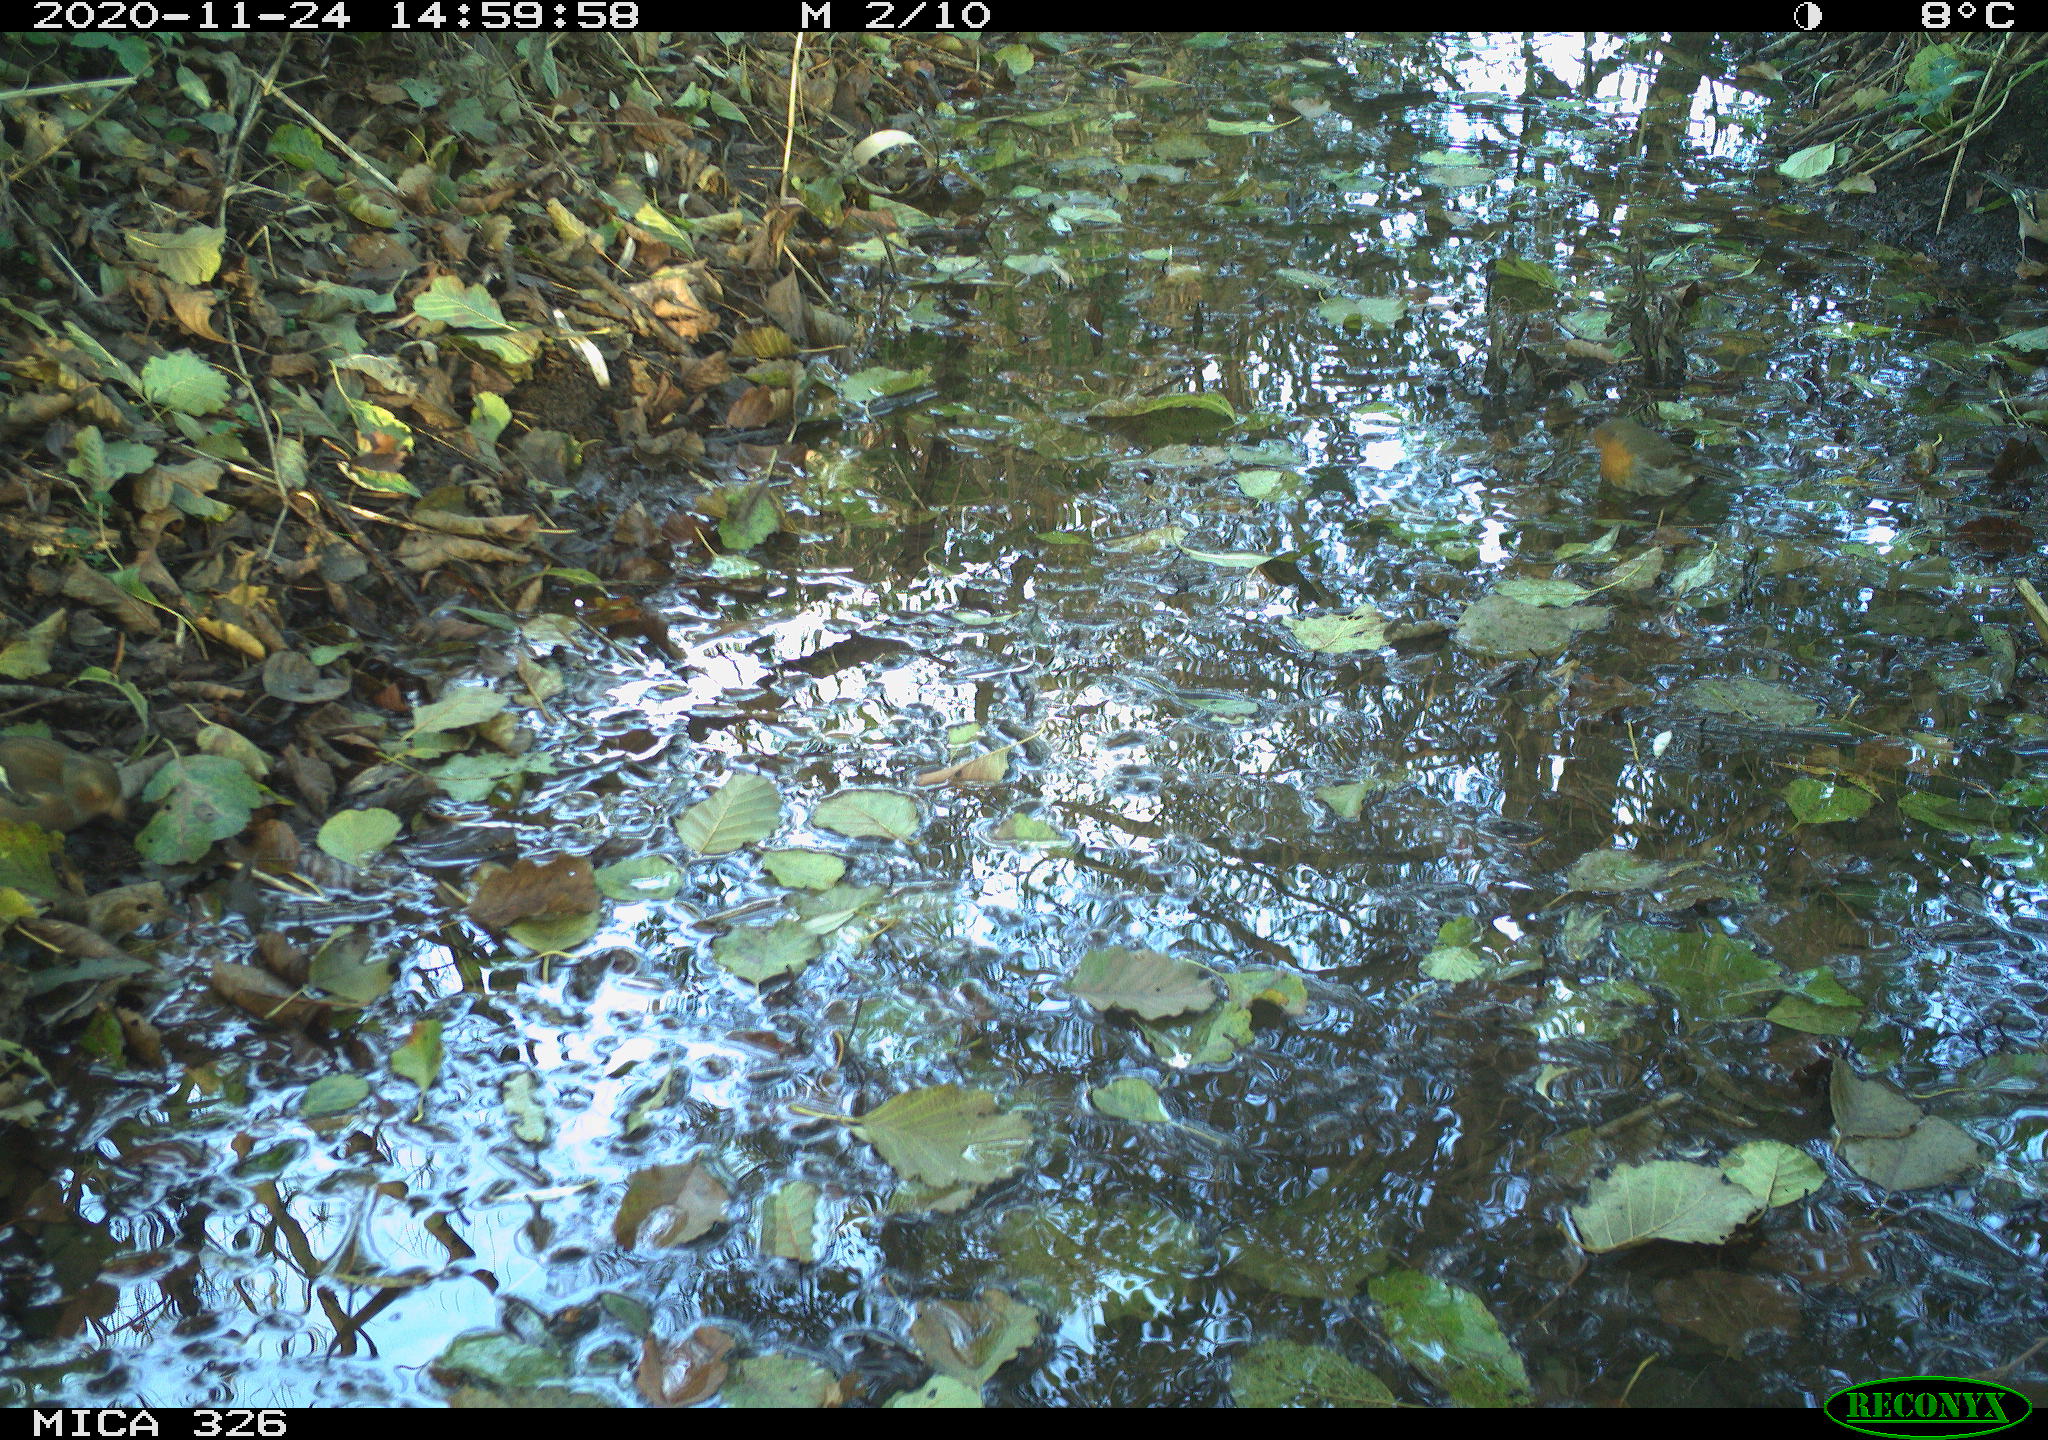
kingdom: Animalia
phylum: Chordata
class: Aves
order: Passeriformes
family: Muscicapidae
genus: Erithacus
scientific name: Erithacus rubecula
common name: European robin
